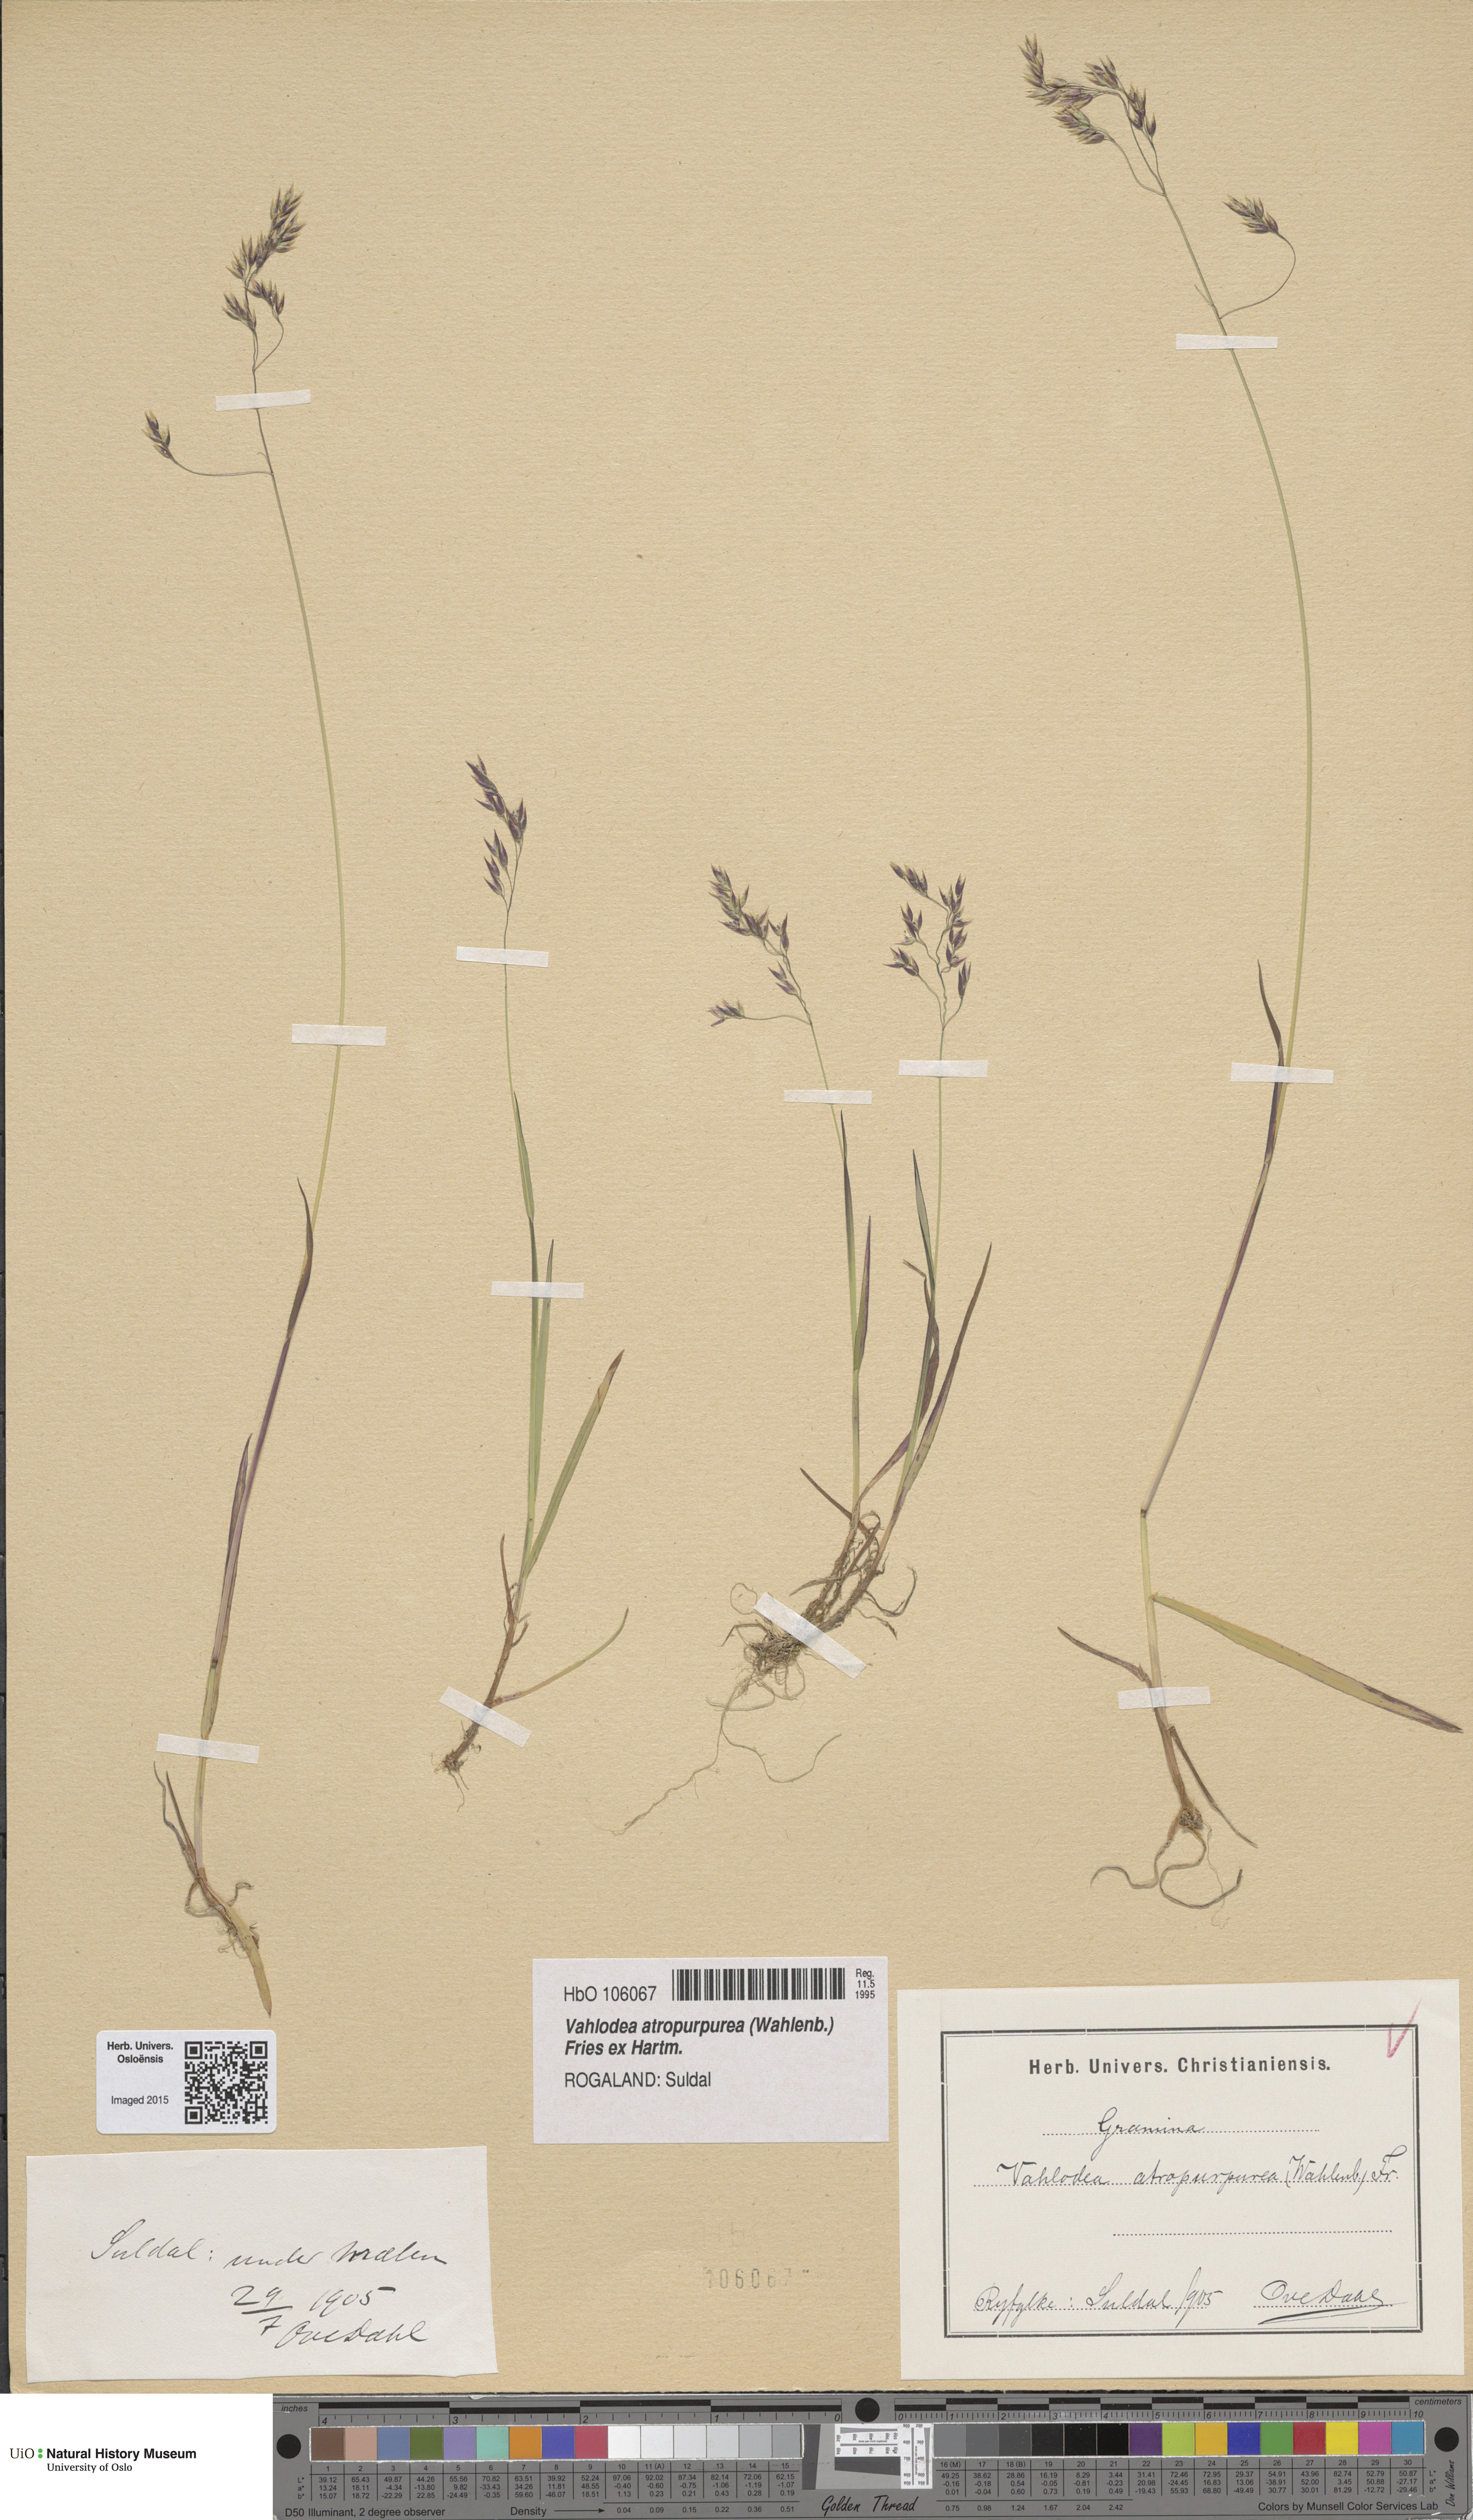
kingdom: Plantae
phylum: Tracheophyta
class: Liliopsida
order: Poales
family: Poaceae
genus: Vahlodea
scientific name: Vahlodea atropurpurea
